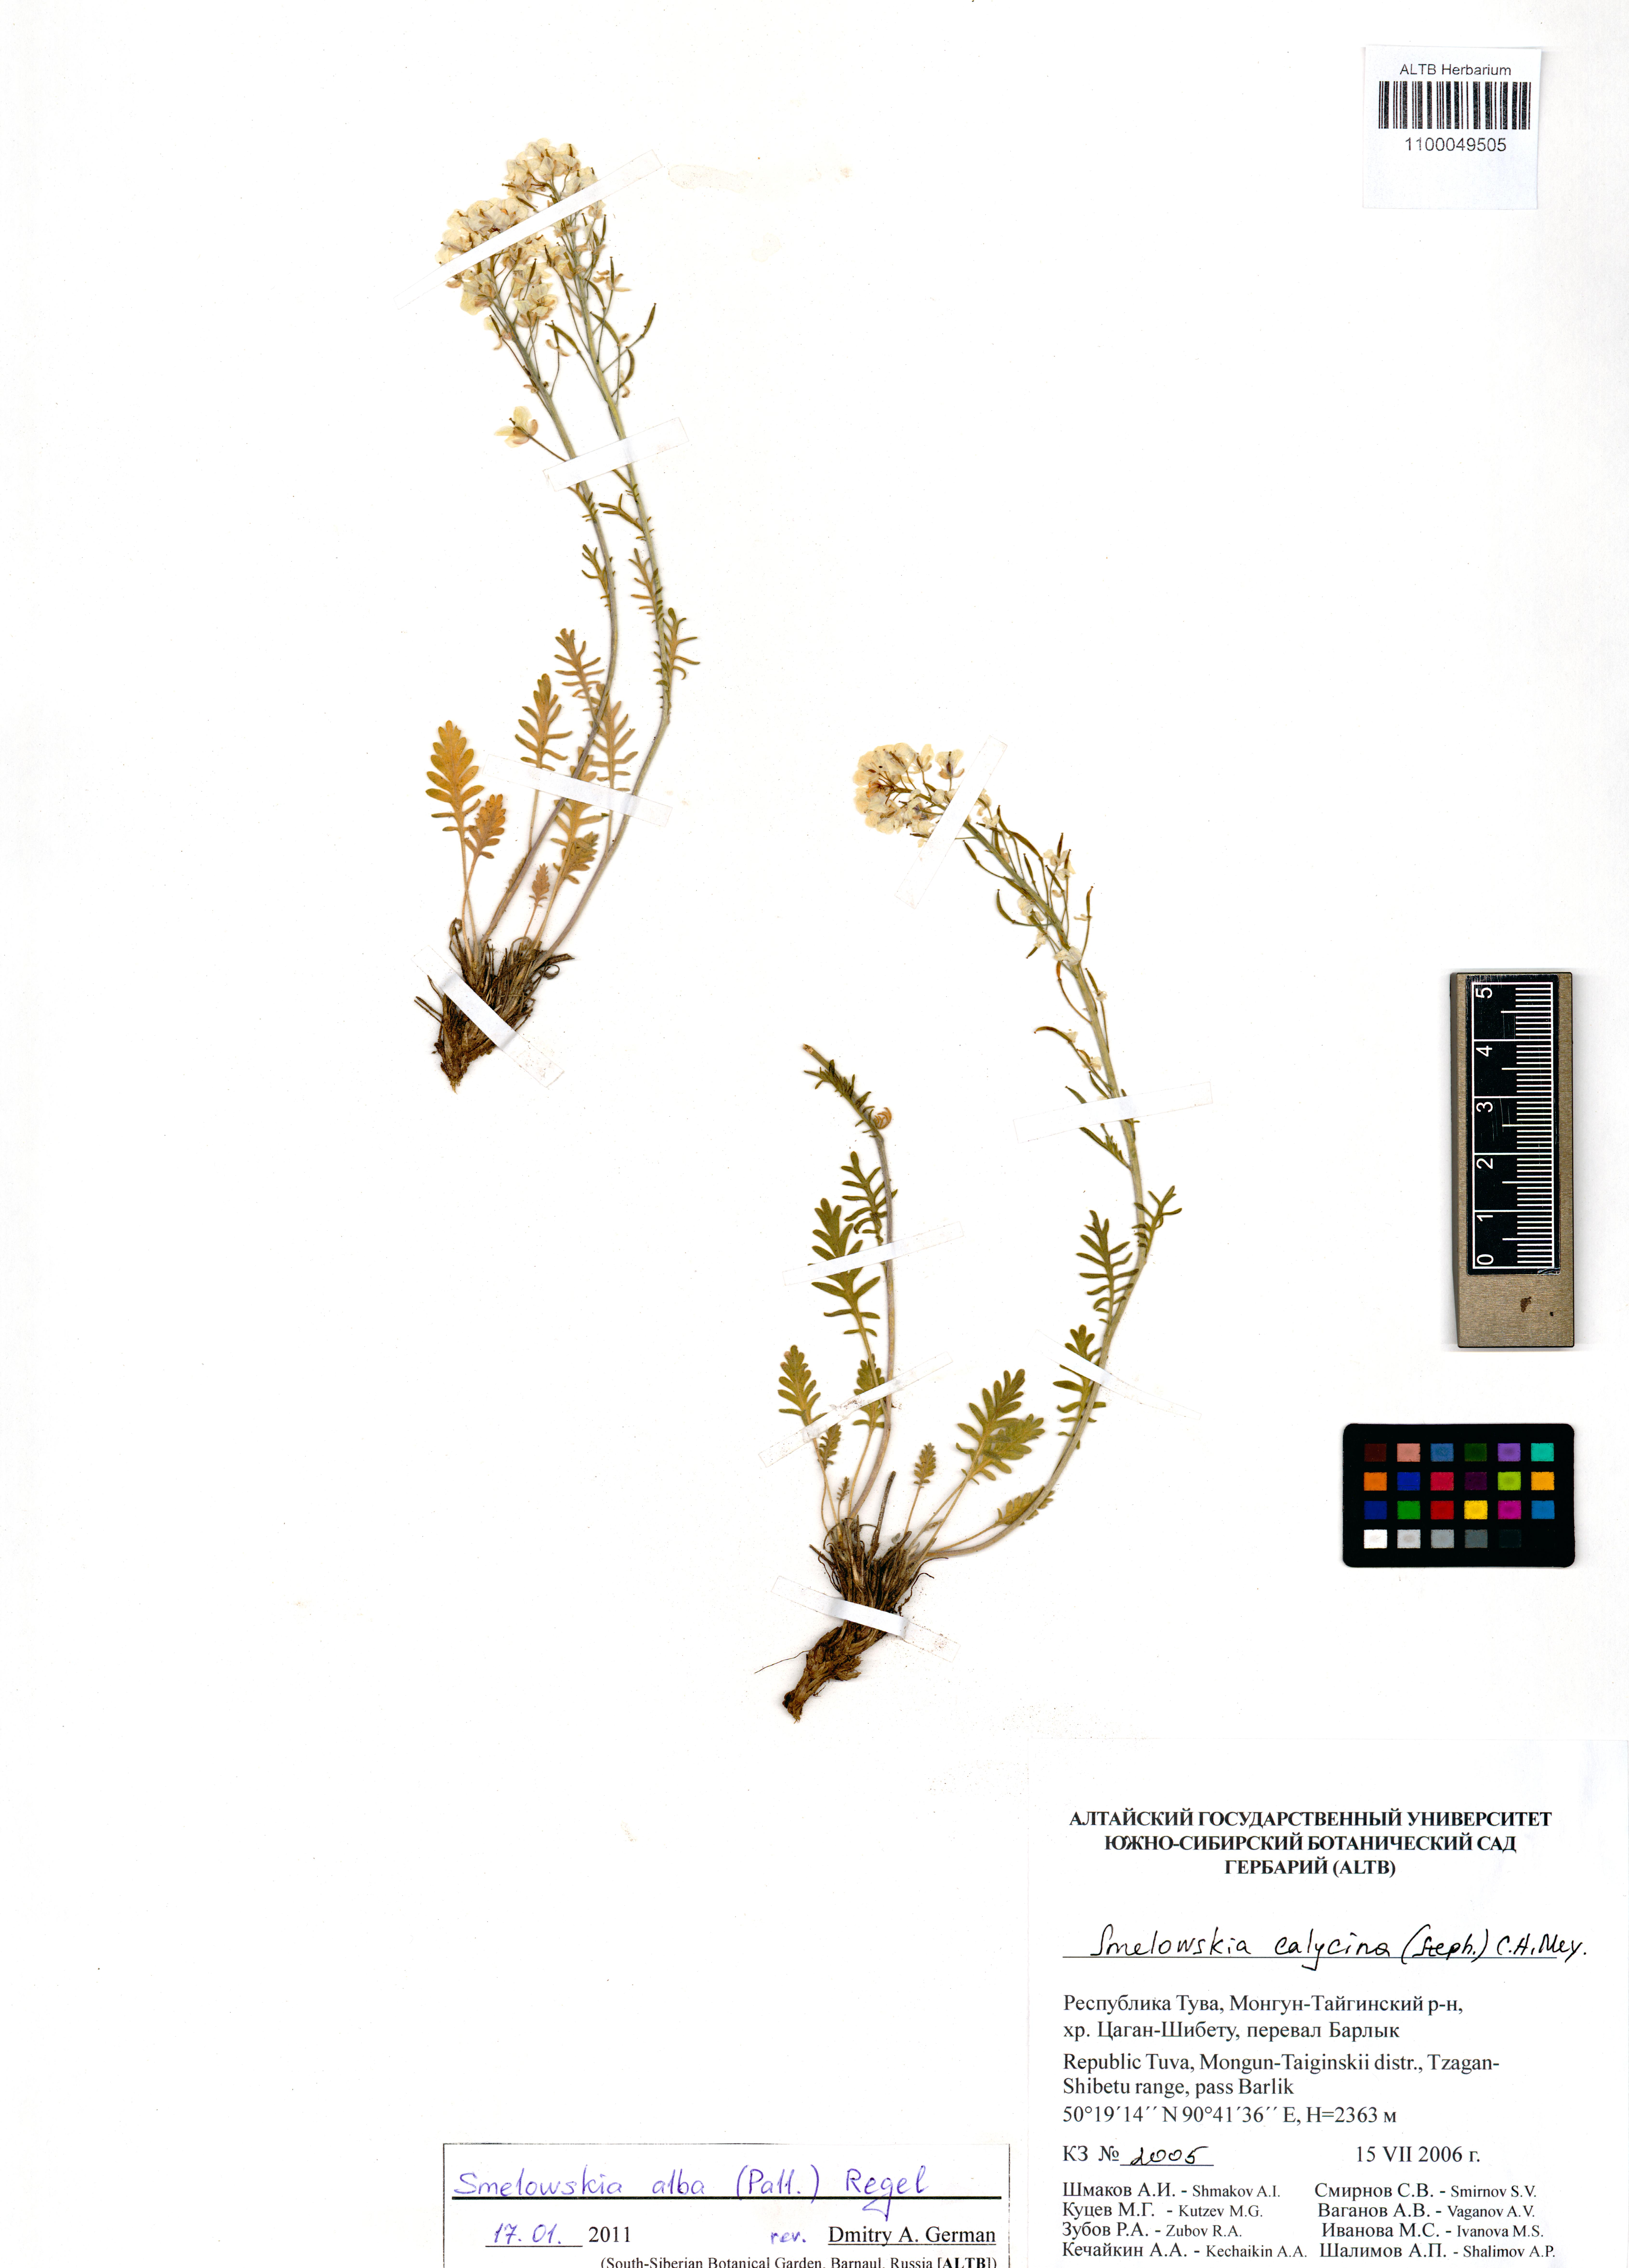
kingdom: Plantae
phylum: Tracheophyta
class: Magnoliopsida
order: Brassicales
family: Brassicaceae
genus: Smelowskia
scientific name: Smelowskia alba
